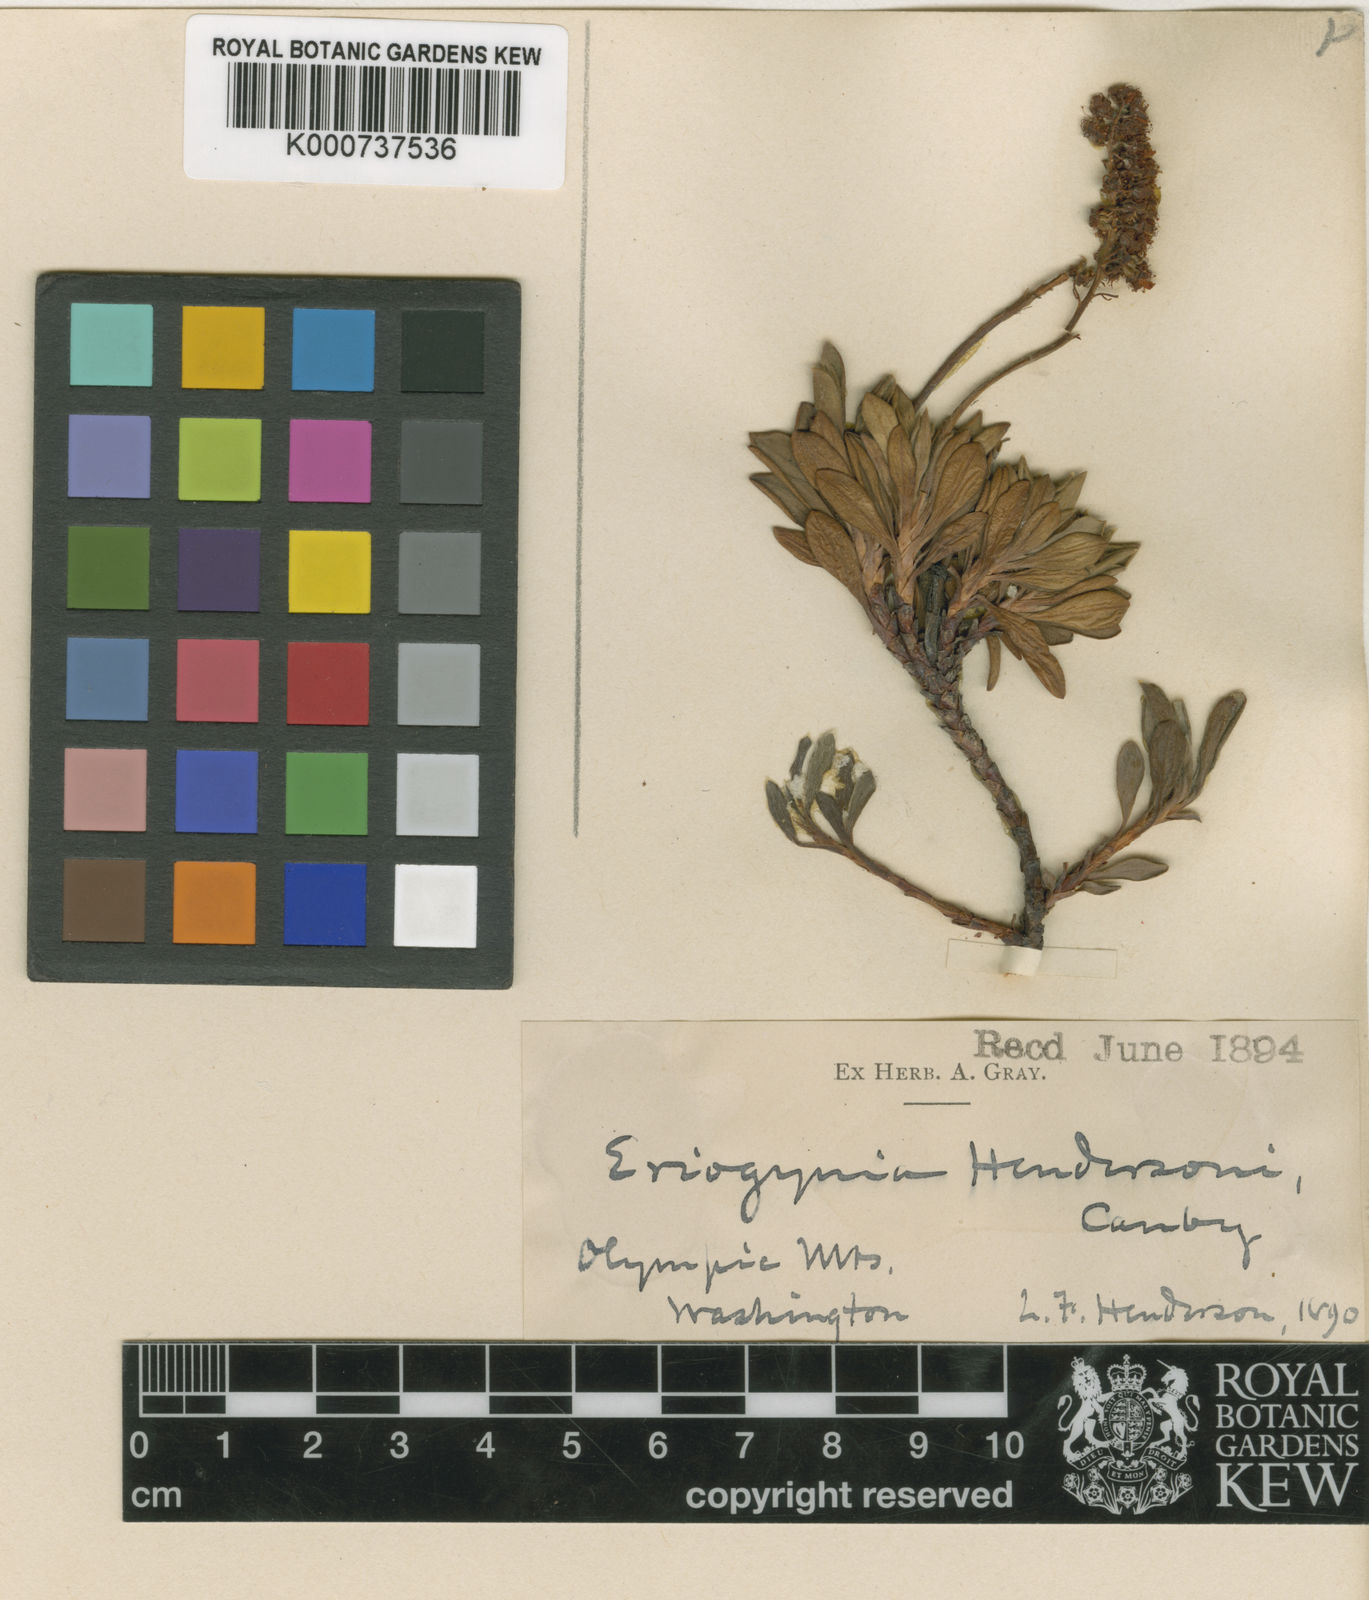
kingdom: Plantae
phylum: Tracheophyta
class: Magnoliopsida
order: Rosales
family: Rosaceae
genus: Petrophytum
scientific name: Petrophytum hendersonii
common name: Olympic mountain rockmat
